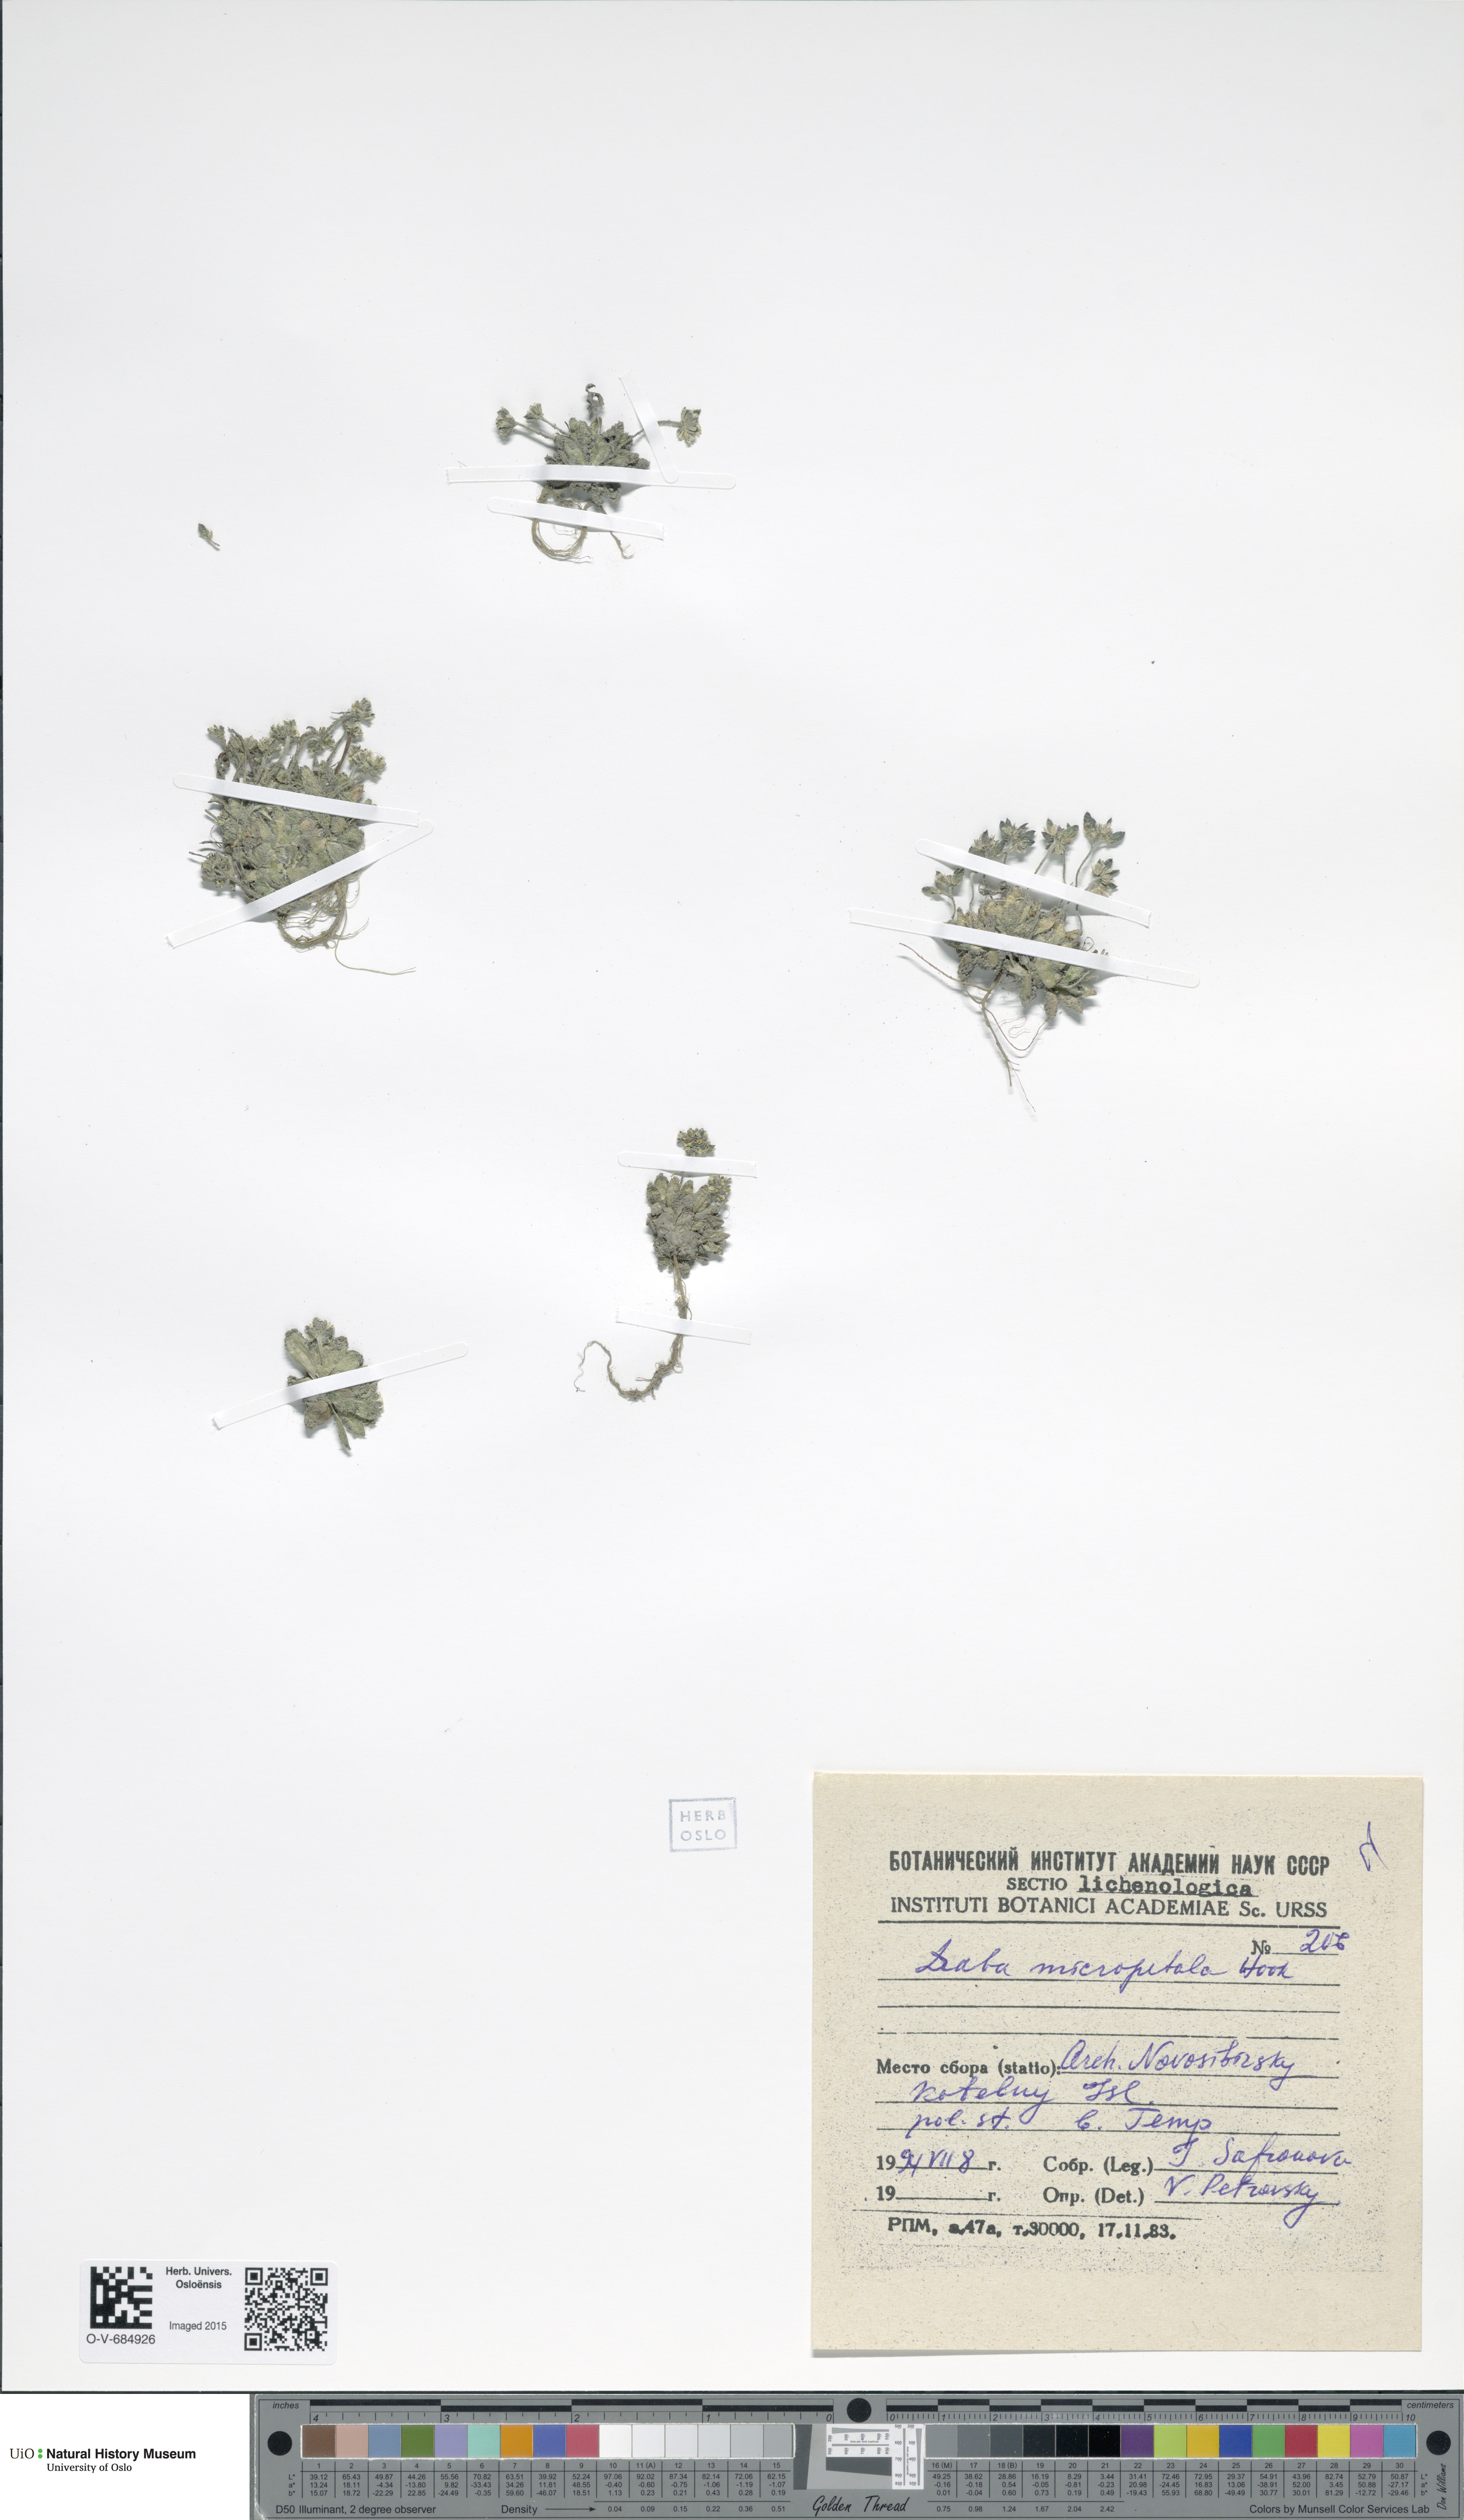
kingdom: Plantae
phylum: Tracheophyta
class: Magnoliopsida
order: Brassicales
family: Brassicaceae
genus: Draba
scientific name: Draba micropetala
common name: Small-flowered draba
